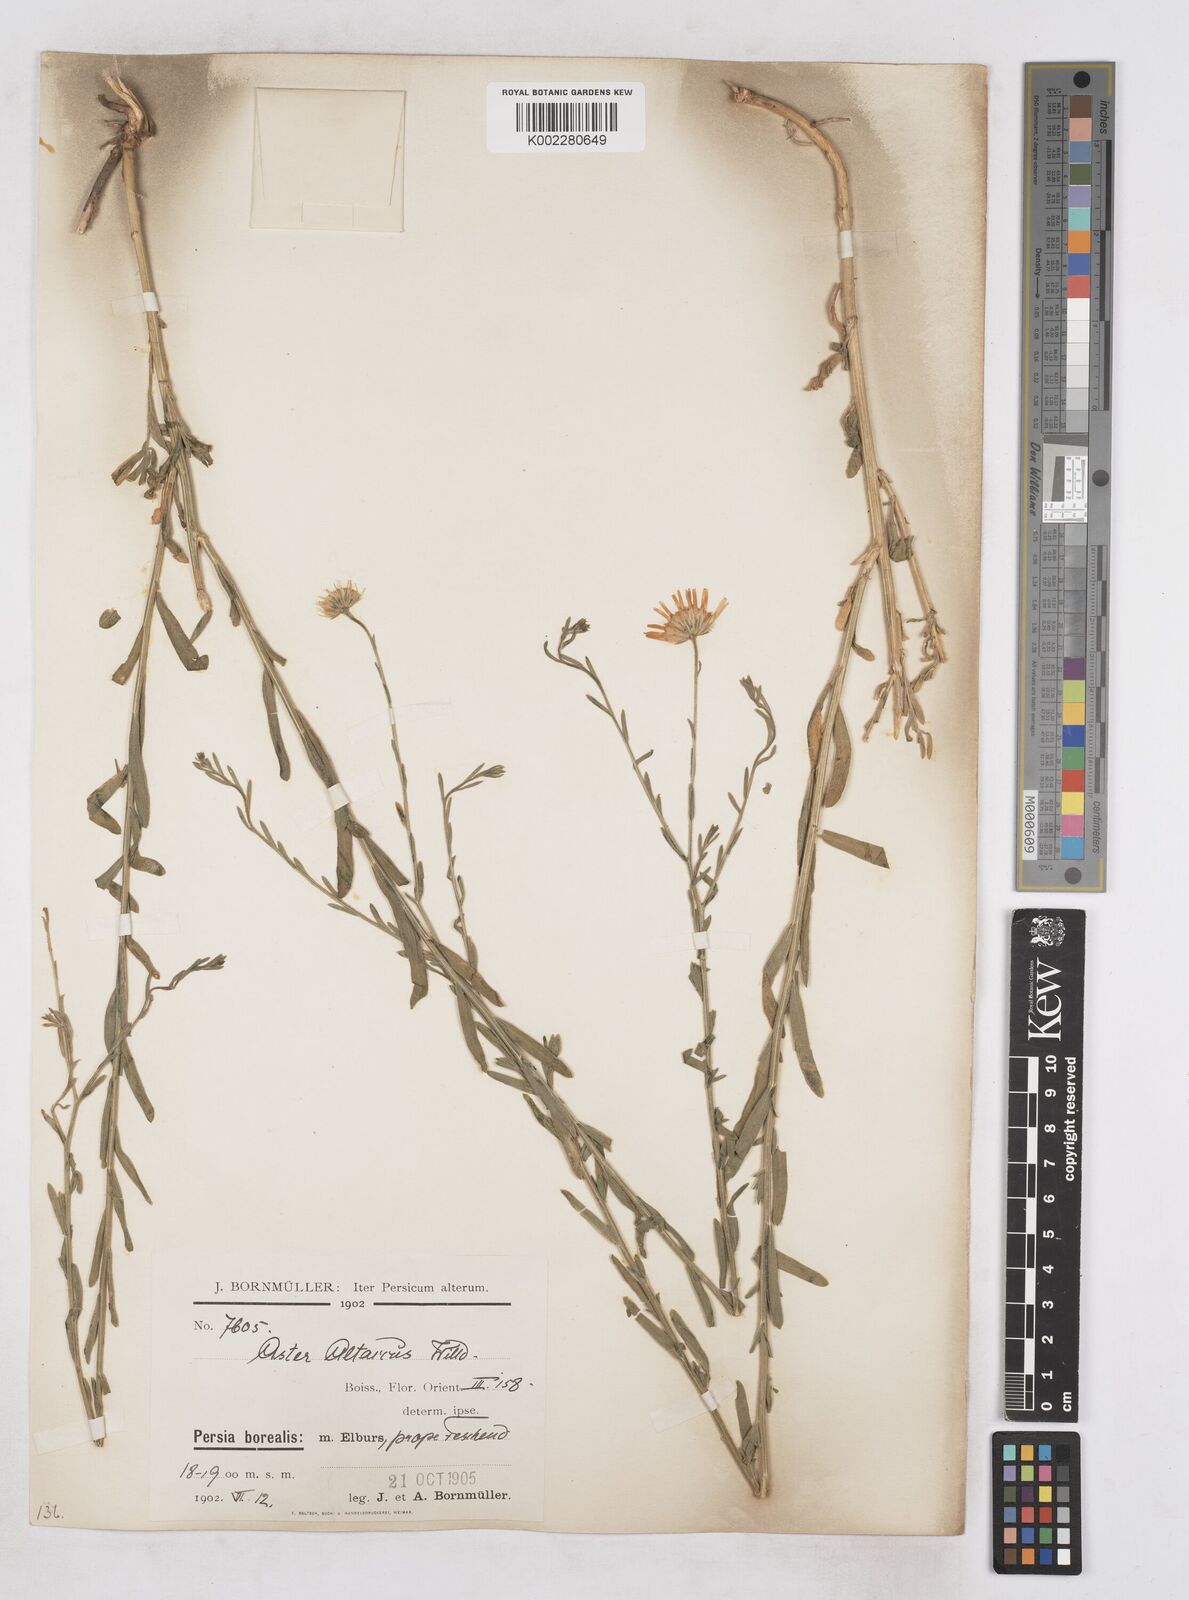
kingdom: Plantae
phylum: Tracheophyta
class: Magnoliopsida
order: Asterales
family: Asteraceae
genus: Heteropappus
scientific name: Heteropappus altaicus
